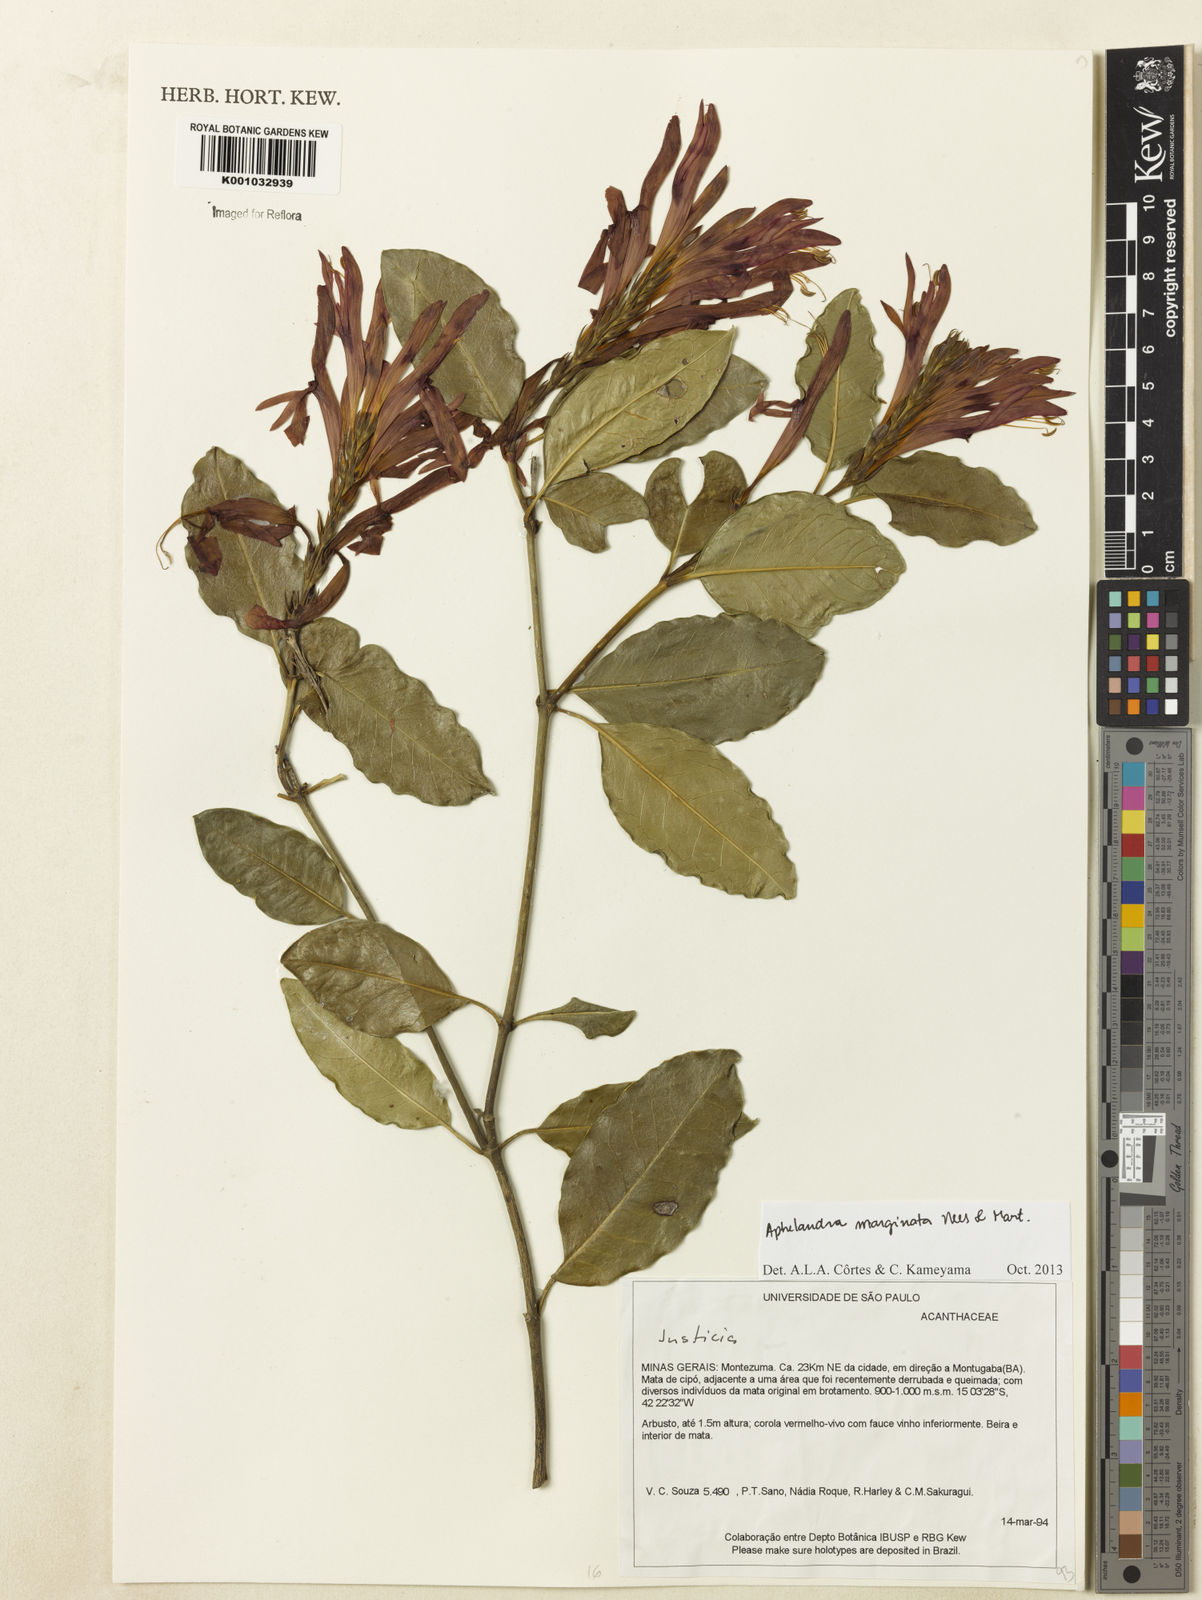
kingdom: Plantae
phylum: Tracheophyta
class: Magnoliopsida
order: Lamiales
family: Acanthaceae
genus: Aphelandra
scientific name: Aphelandra marginata
